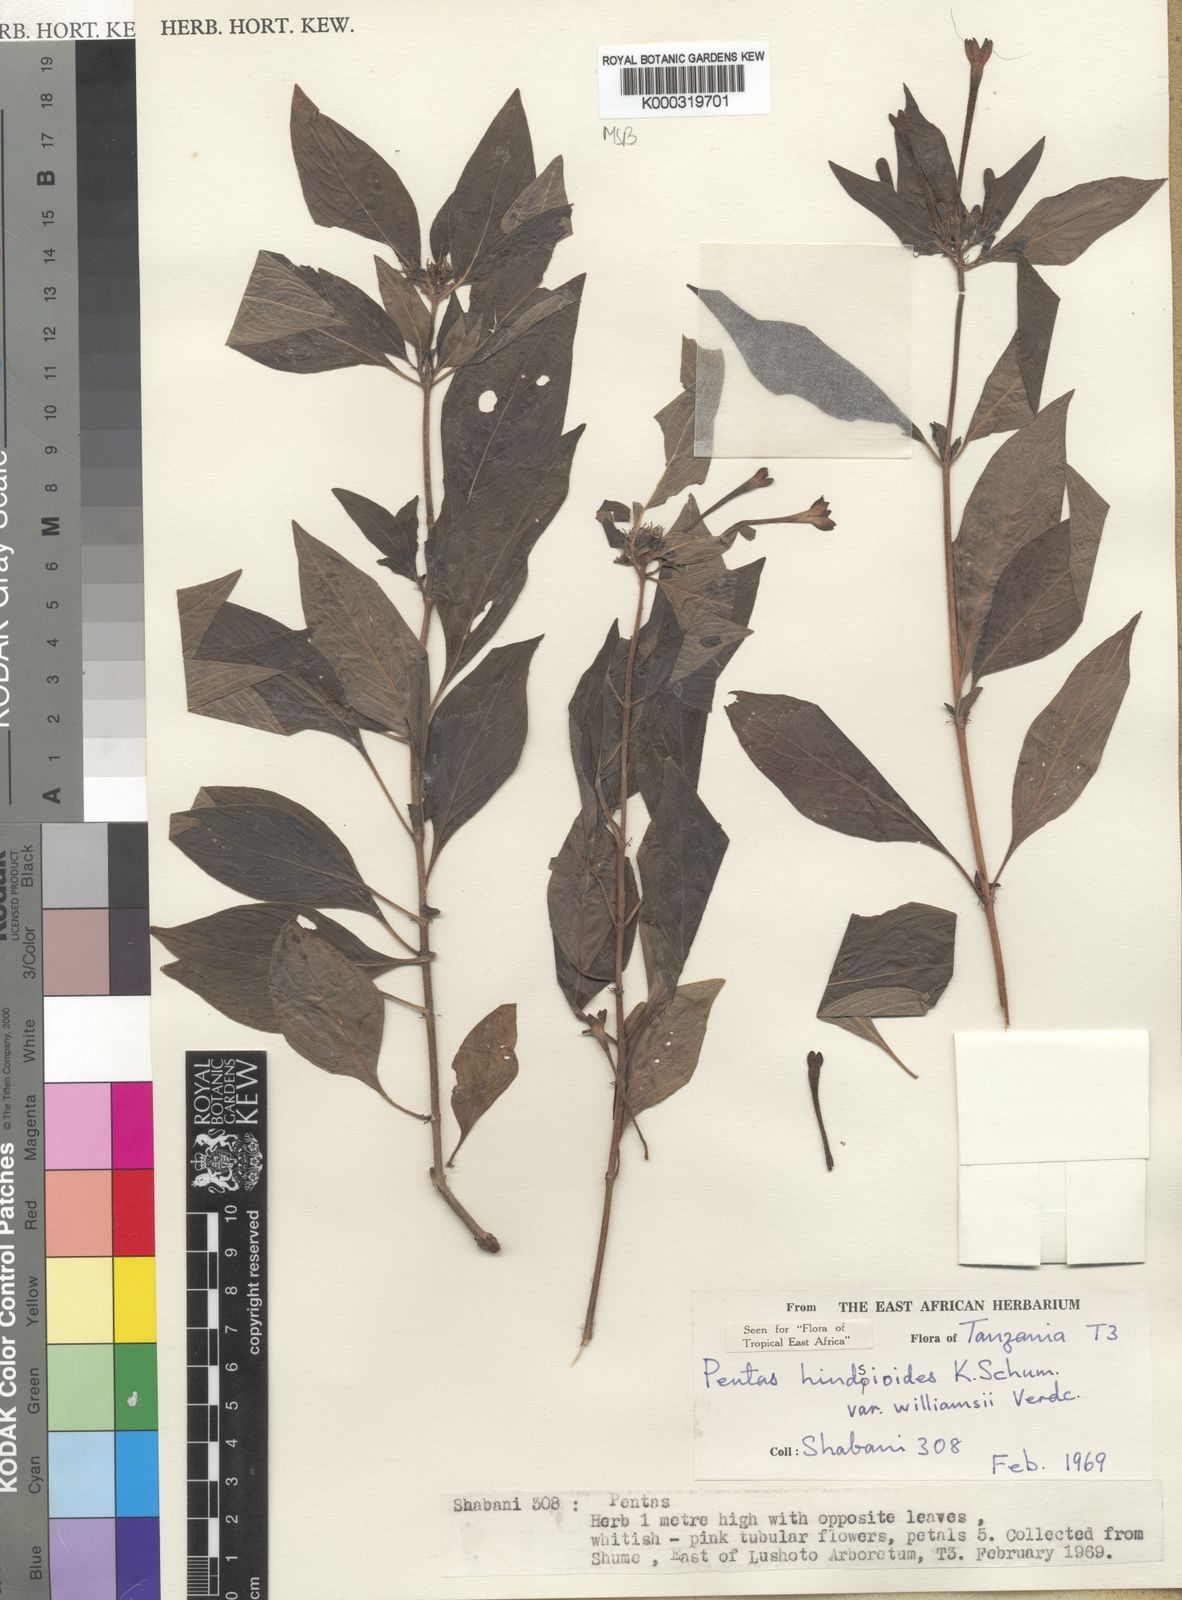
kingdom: Plantae
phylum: Tracheophyta
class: Magnoliopsida
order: Gentianales
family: Rubiaceae
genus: Chamaepentas
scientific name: Chamaepentas hindsioides
